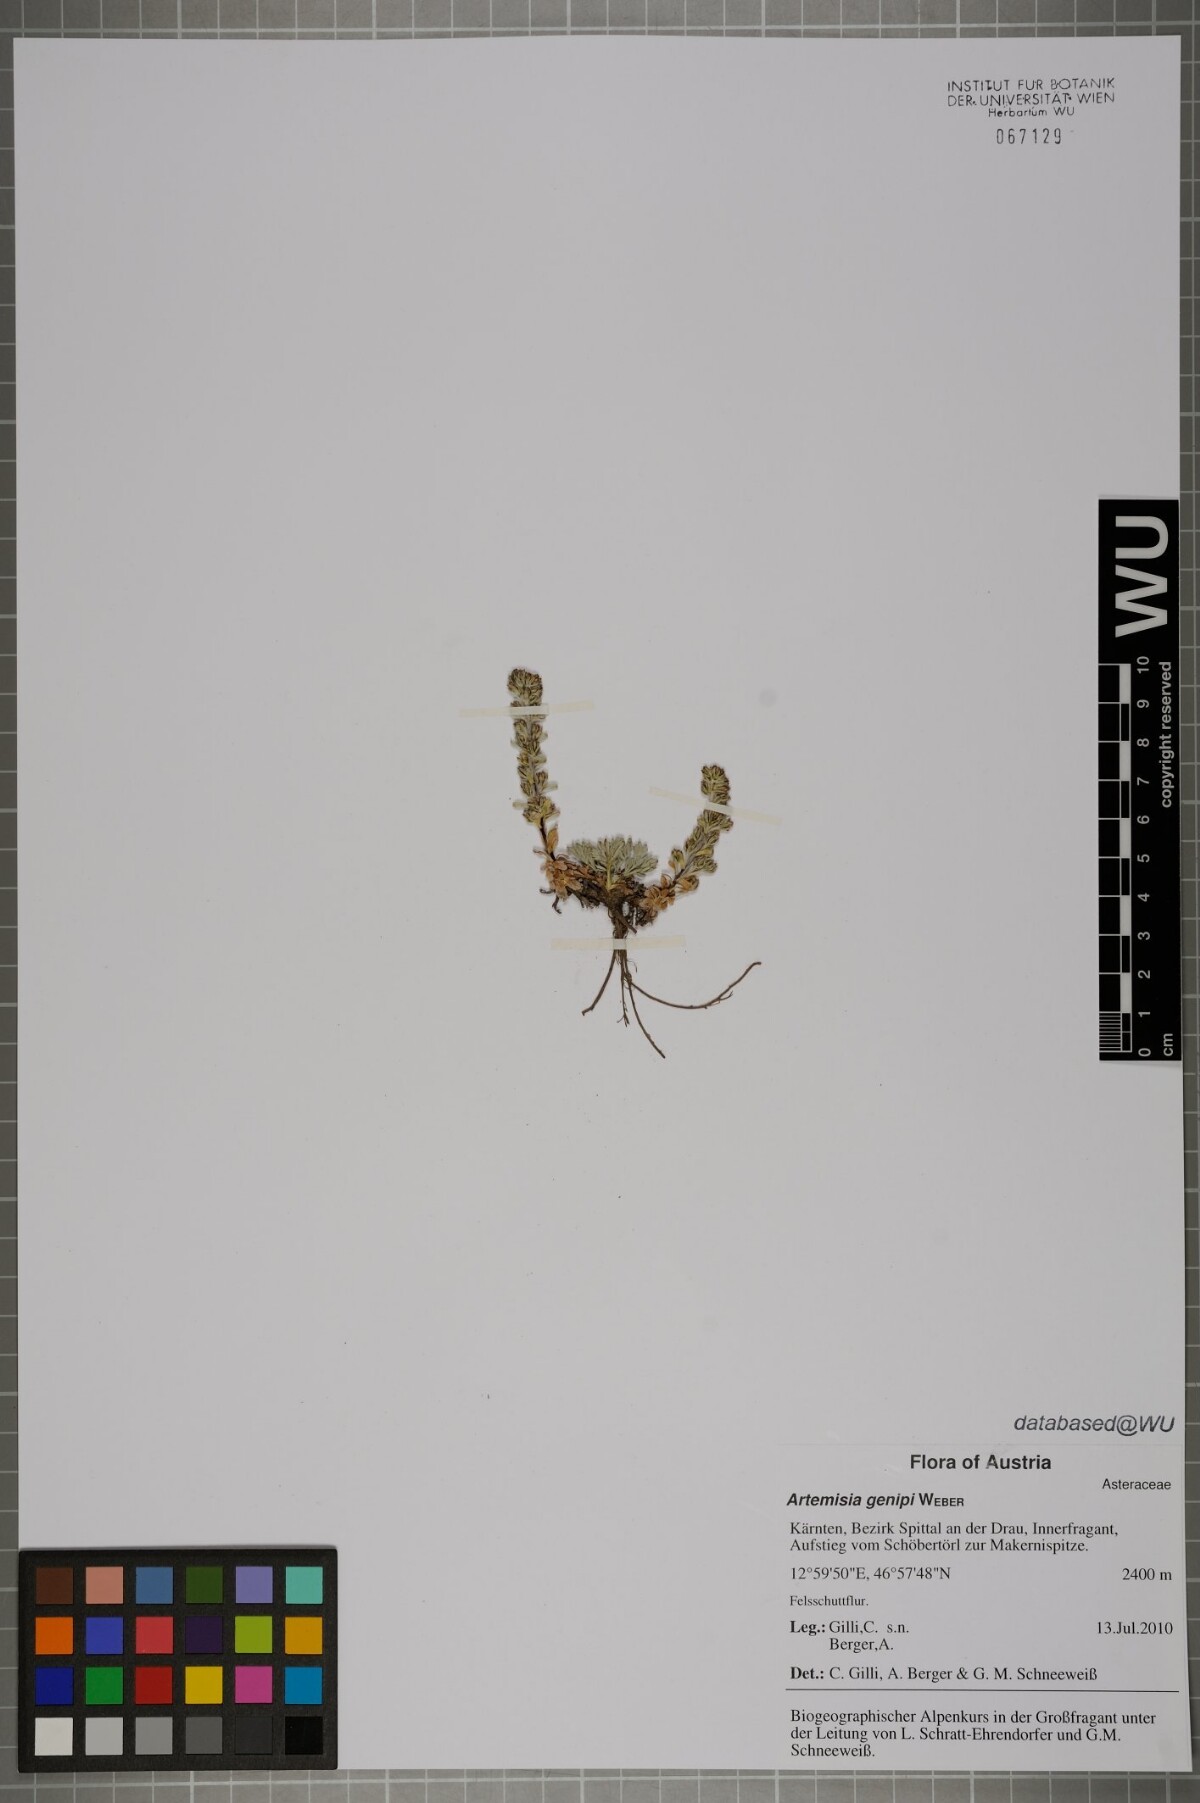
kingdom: Plantae
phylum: Tracheophyta
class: Magnoliopsida
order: Asterales
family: Asteraceae
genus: Artemisia
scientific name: Artemisia genipi
